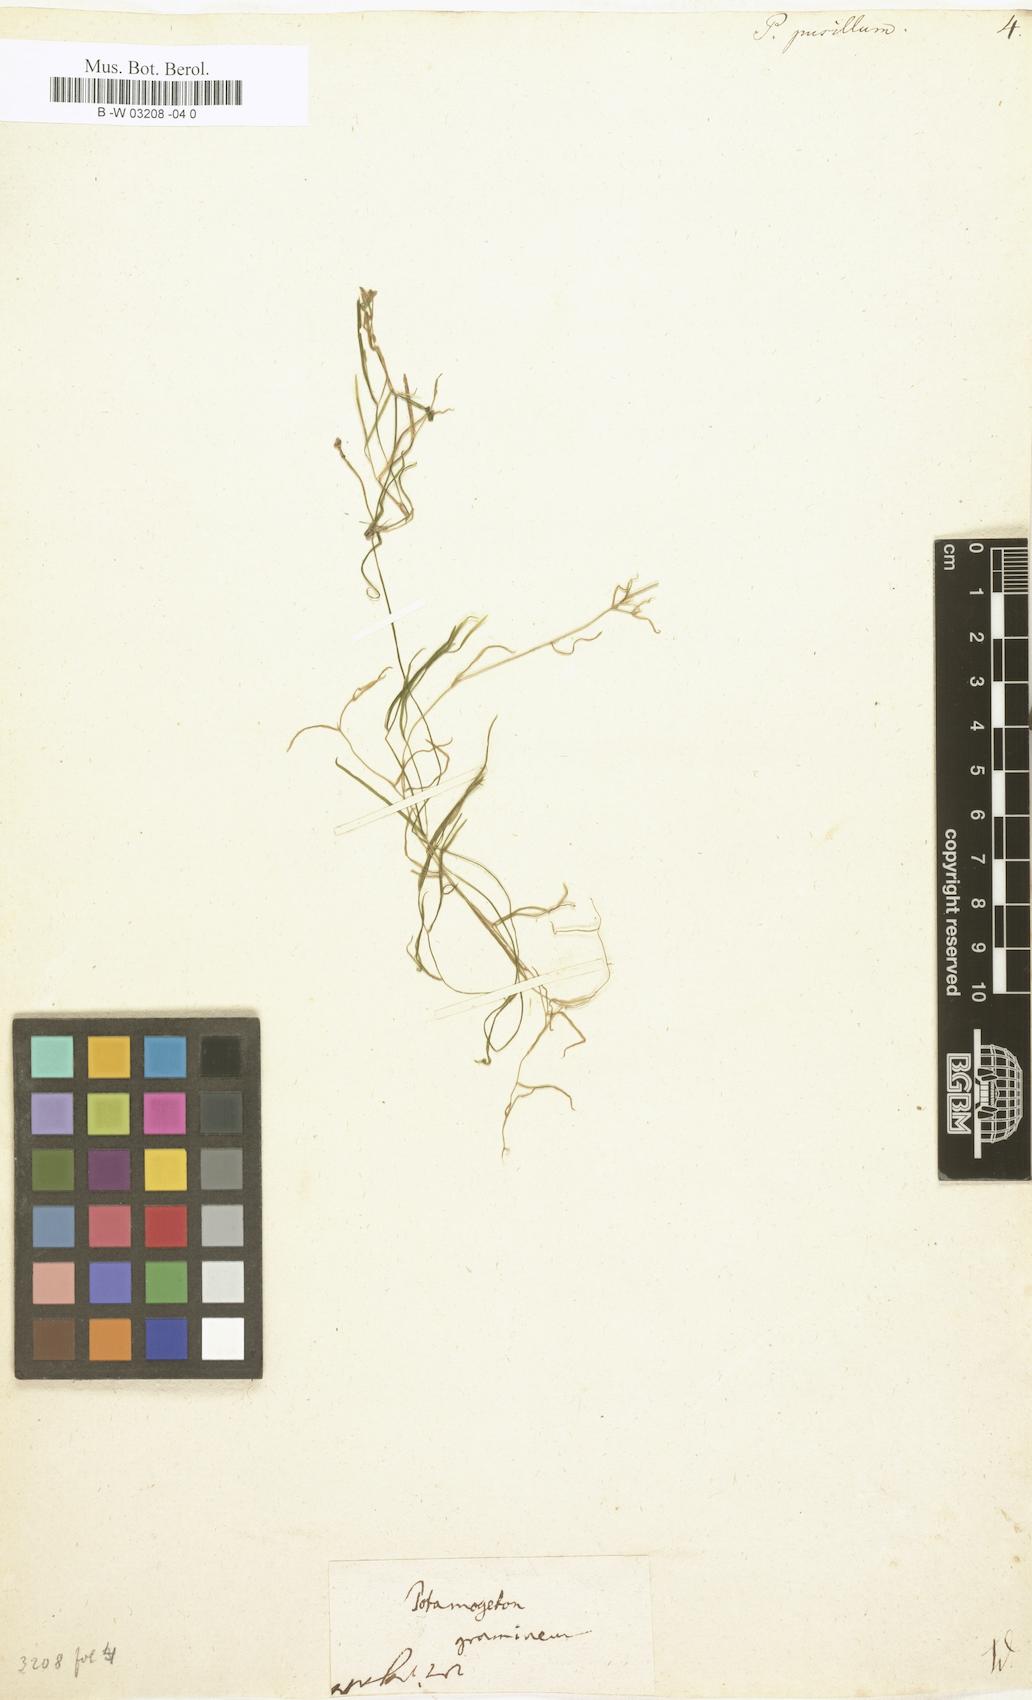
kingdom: Plantae
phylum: Tracheophyta
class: Liliopsida
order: Alismatales
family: Potamogetonaceae
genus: Potamogeton
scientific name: Potamogeton pusillus
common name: Lesser pondweed
